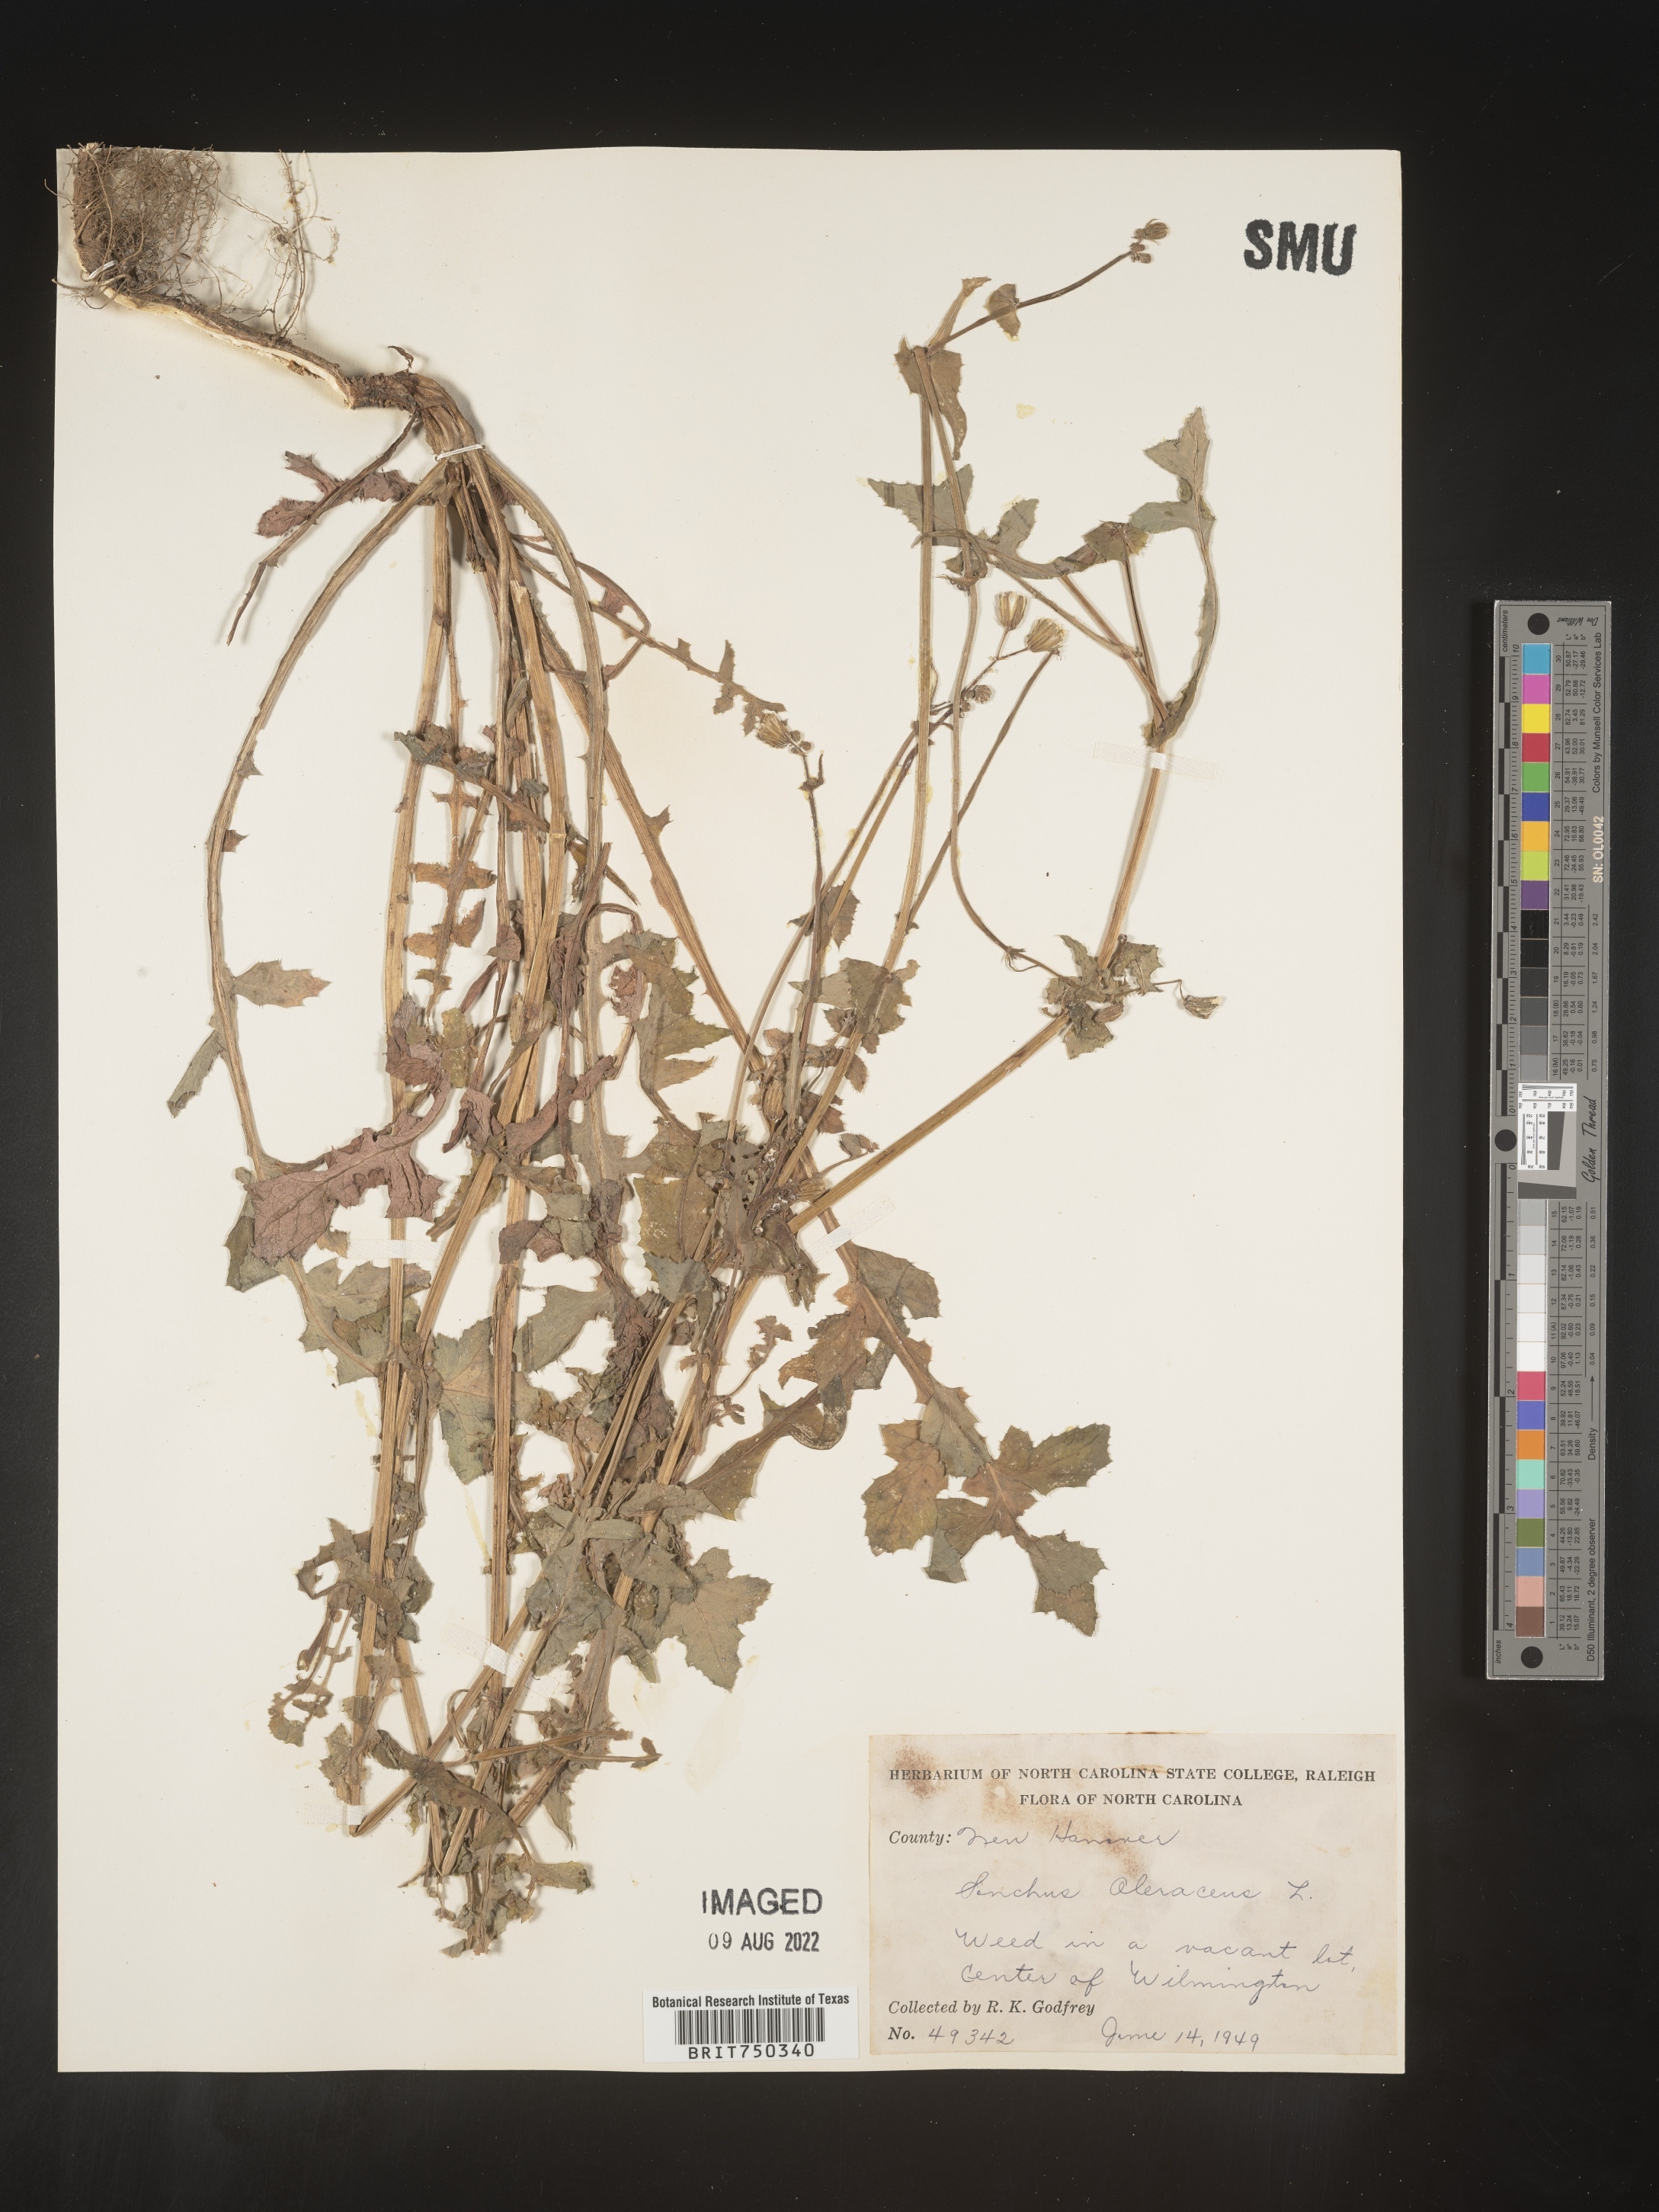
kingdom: Plantae
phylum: Tracheophyta
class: Magnoliopsida
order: Asterales
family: Asteraceae
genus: Sonchus
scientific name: Sonchus oleraceus
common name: Common sowthistle
